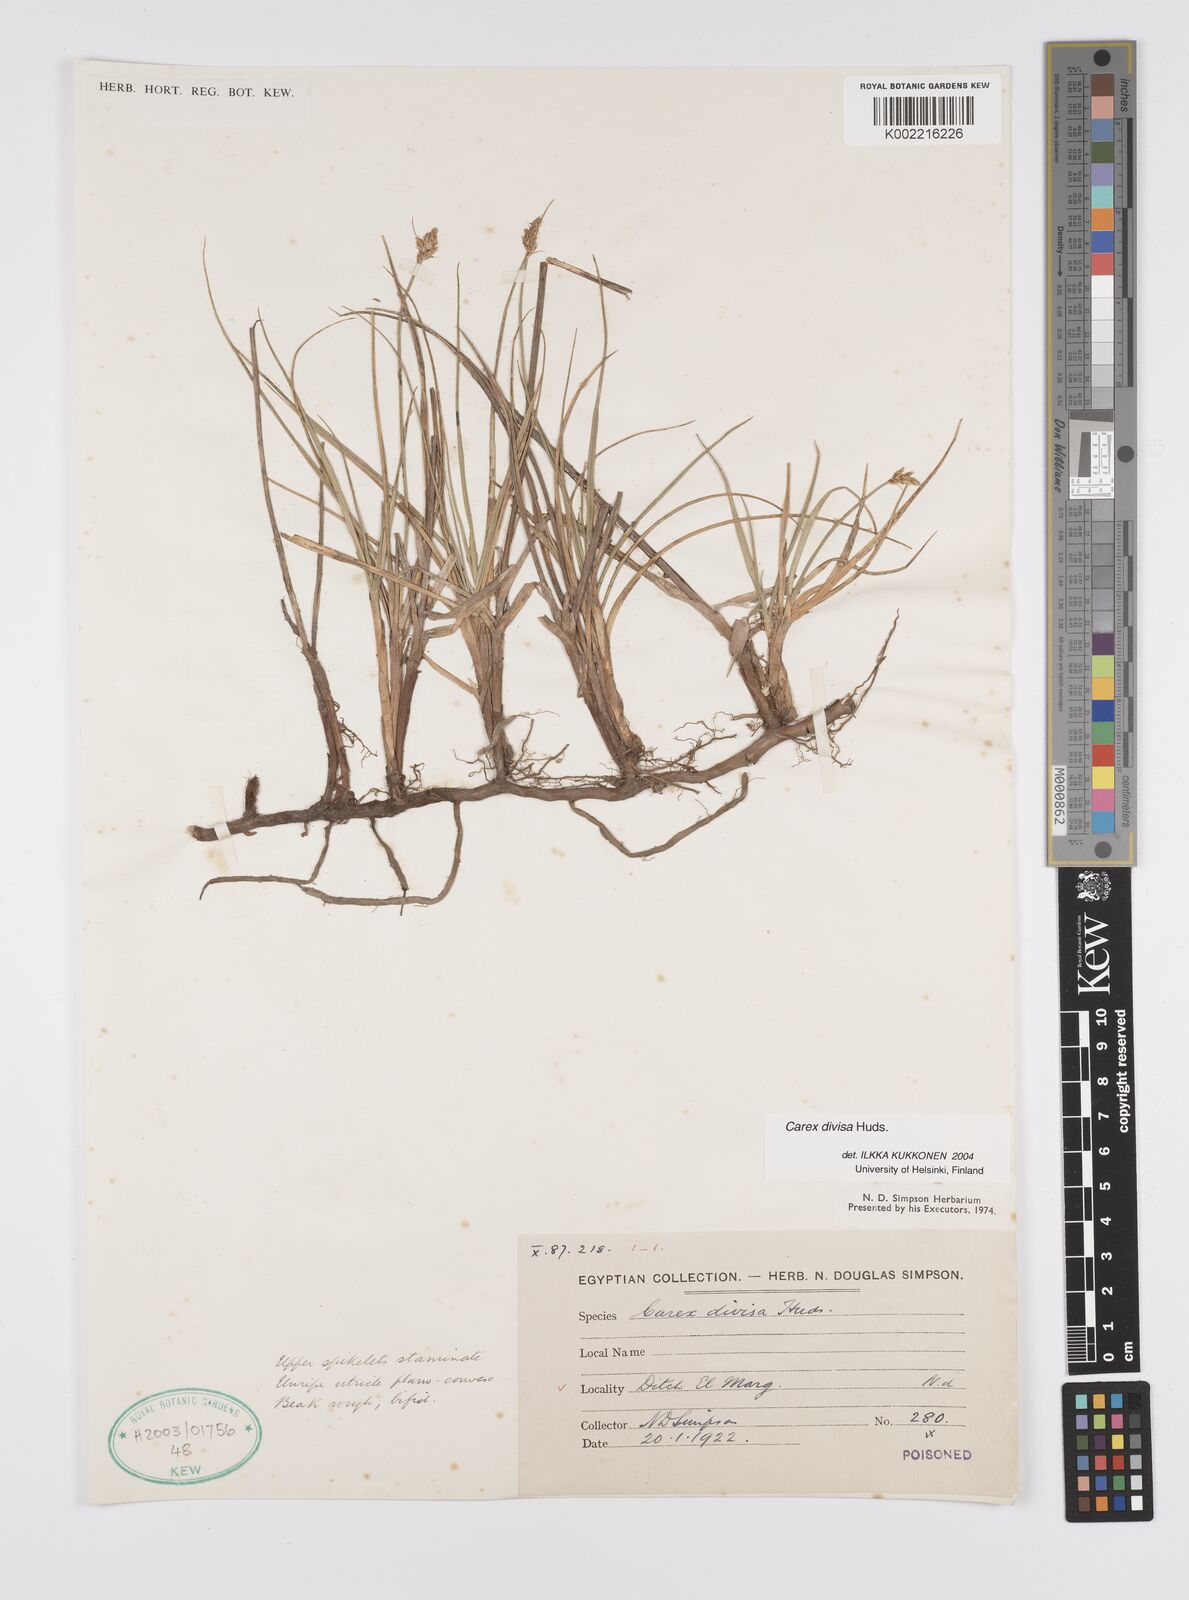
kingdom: Plantae
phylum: Tracheophyta
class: Liliopsida
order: Poales
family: Cyperaceae
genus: Carex
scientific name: Carex divisa
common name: Divided sedge
